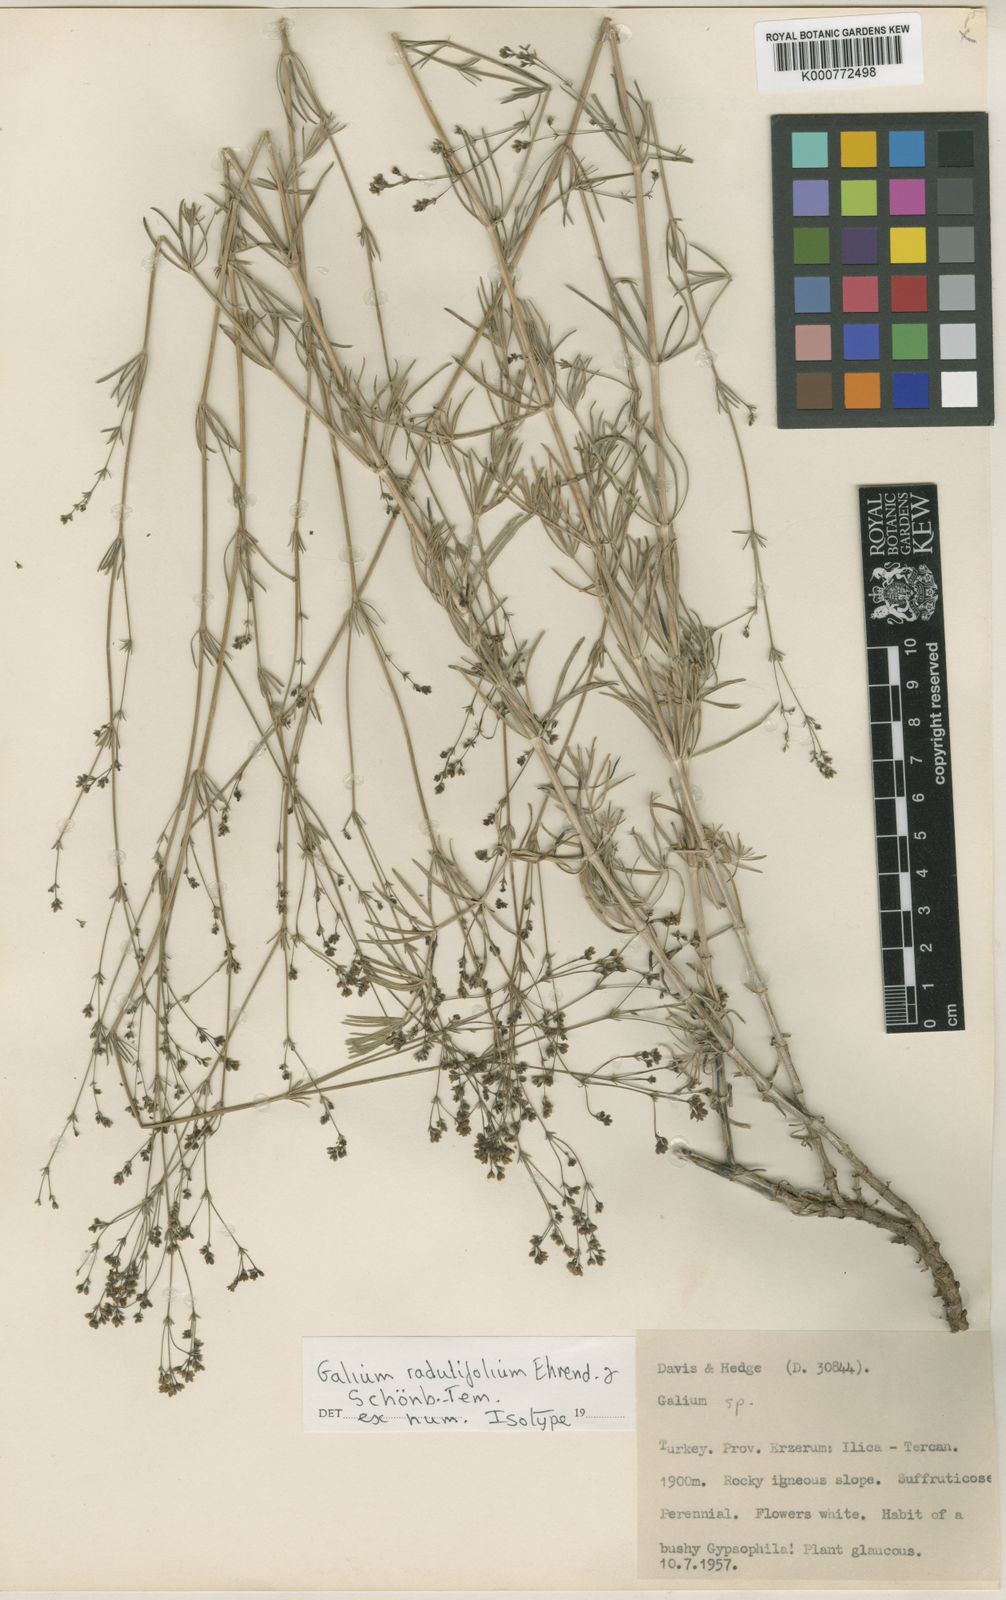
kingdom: Plantae
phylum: Tracheophyta
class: Magnoliopsida
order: Gentianales
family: Rubiaceae
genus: Galium
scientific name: Galium
